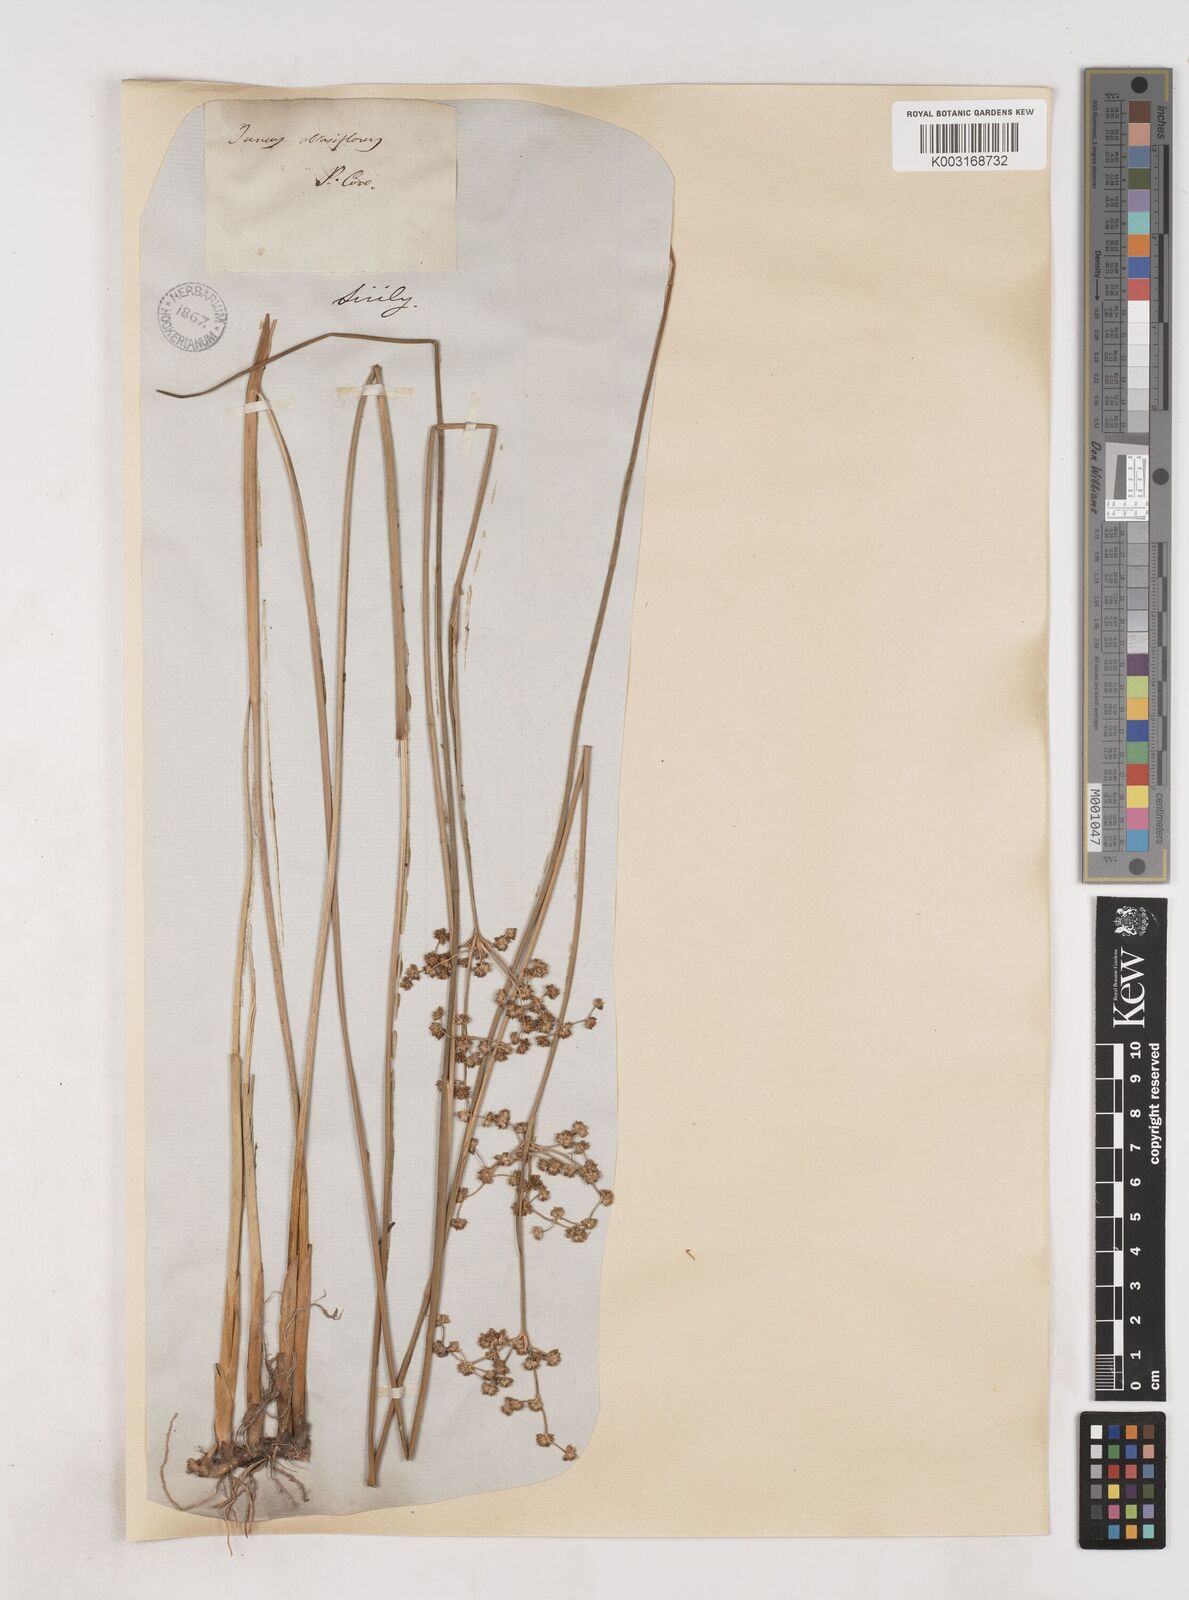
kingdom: Plantae
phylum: Tracheophyta
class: Liliopsida
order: Poales
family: Juncaceae
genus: Juncus
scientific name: Juncus subnodulosus
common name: Blunt-flowered rush
